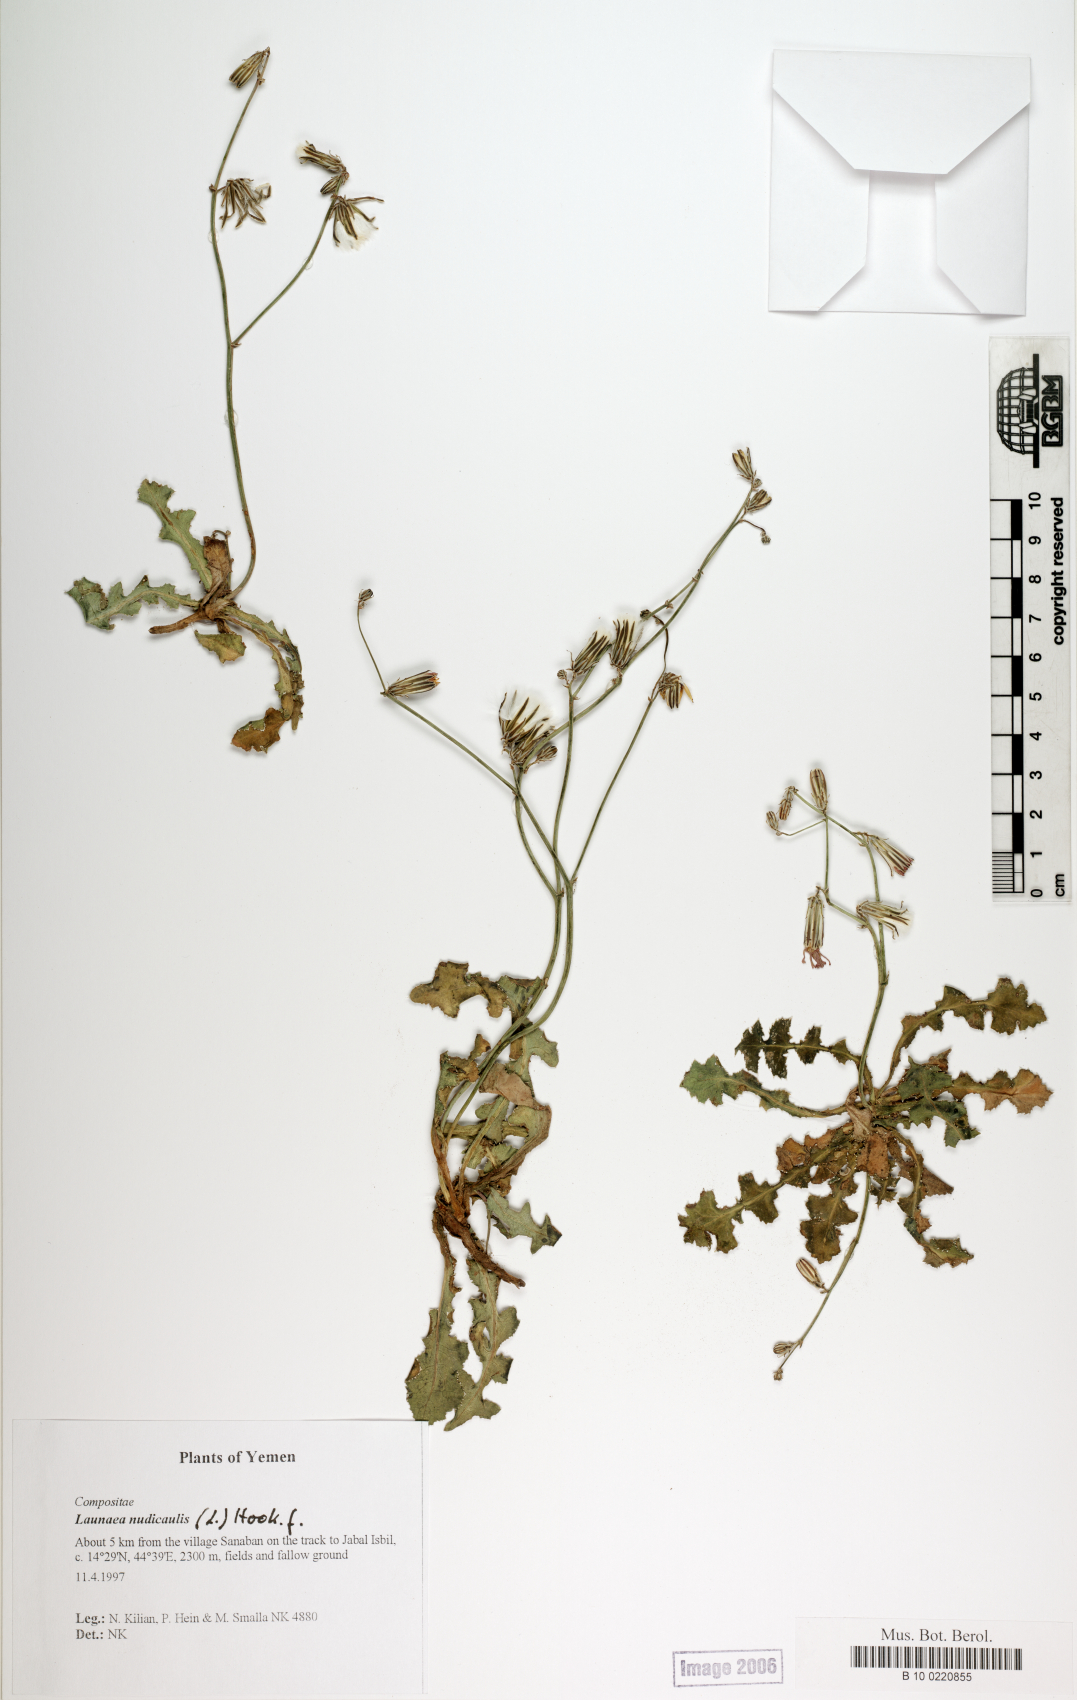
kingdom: Plantae
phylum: Tracheophyta
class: Magnoliopsida
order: Asterales
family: Asteraceae
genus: Launaea
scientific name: Launaea nudicaulis
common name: Naked launaea
